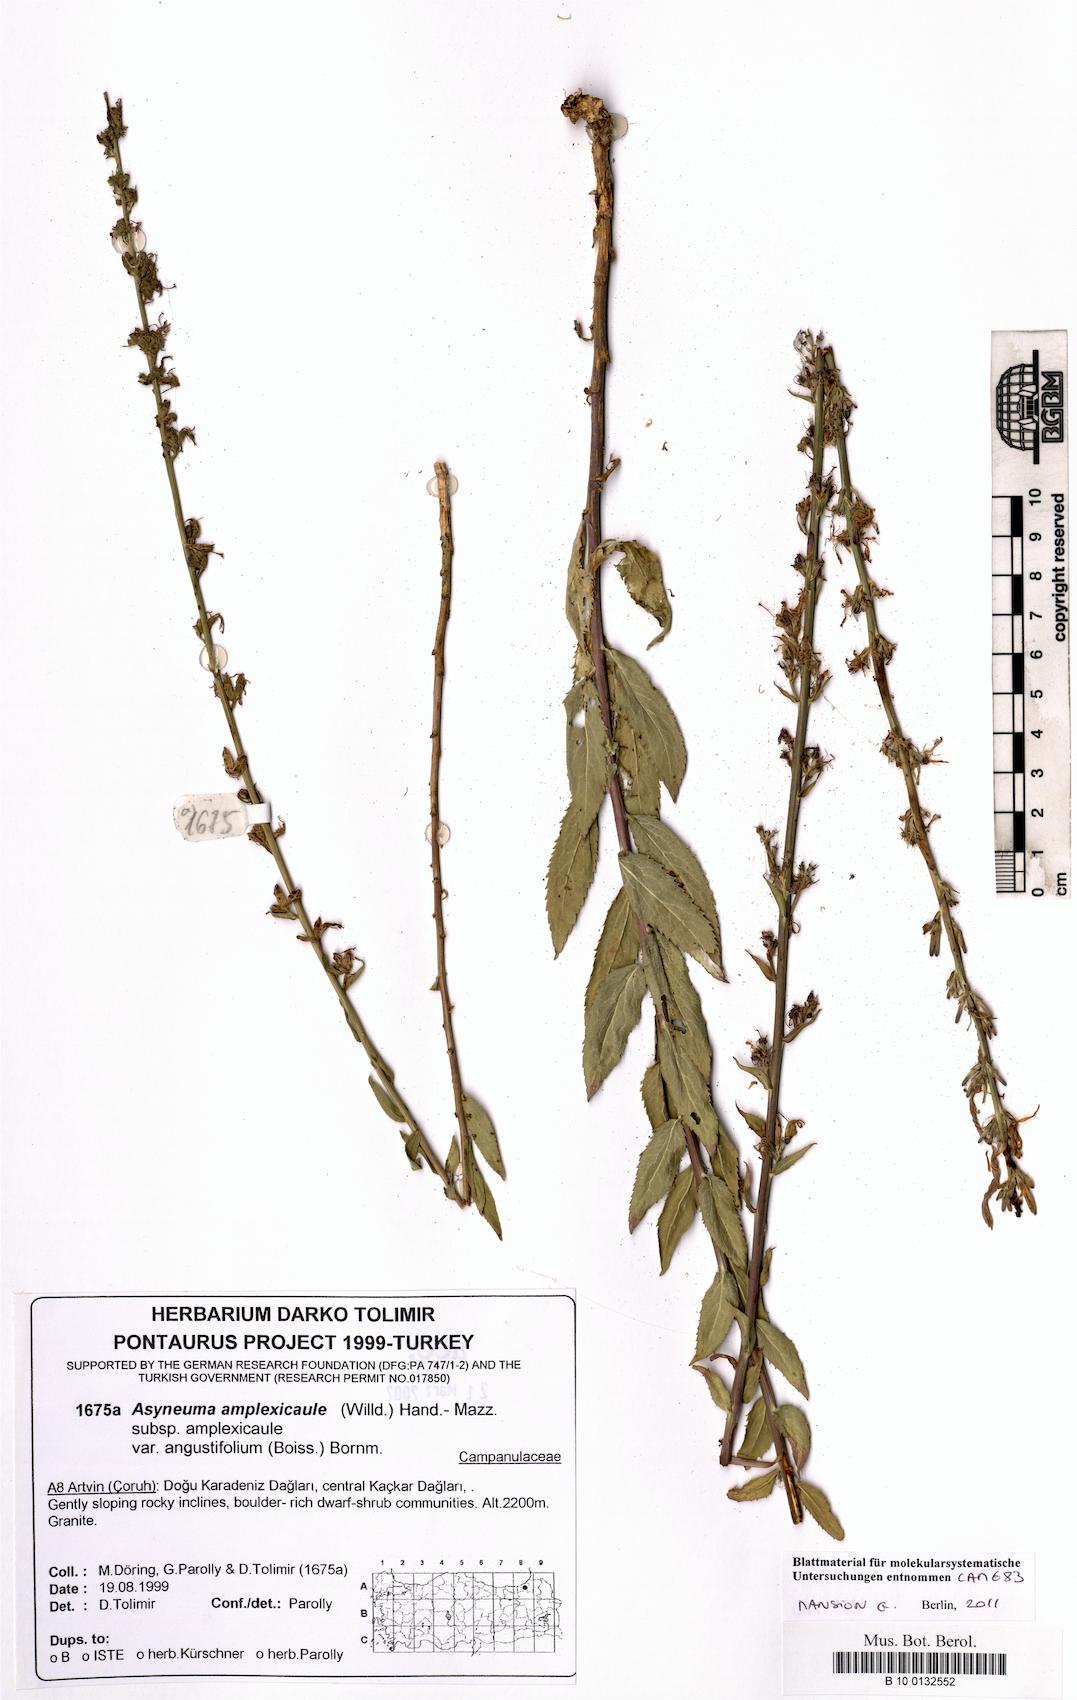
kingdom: Plantae
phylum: Tracheophyta
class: Magnoliopsida
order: Asterales
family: Campanulaceae
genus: Asyneuma
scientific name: Asyneuma amplexicaule
